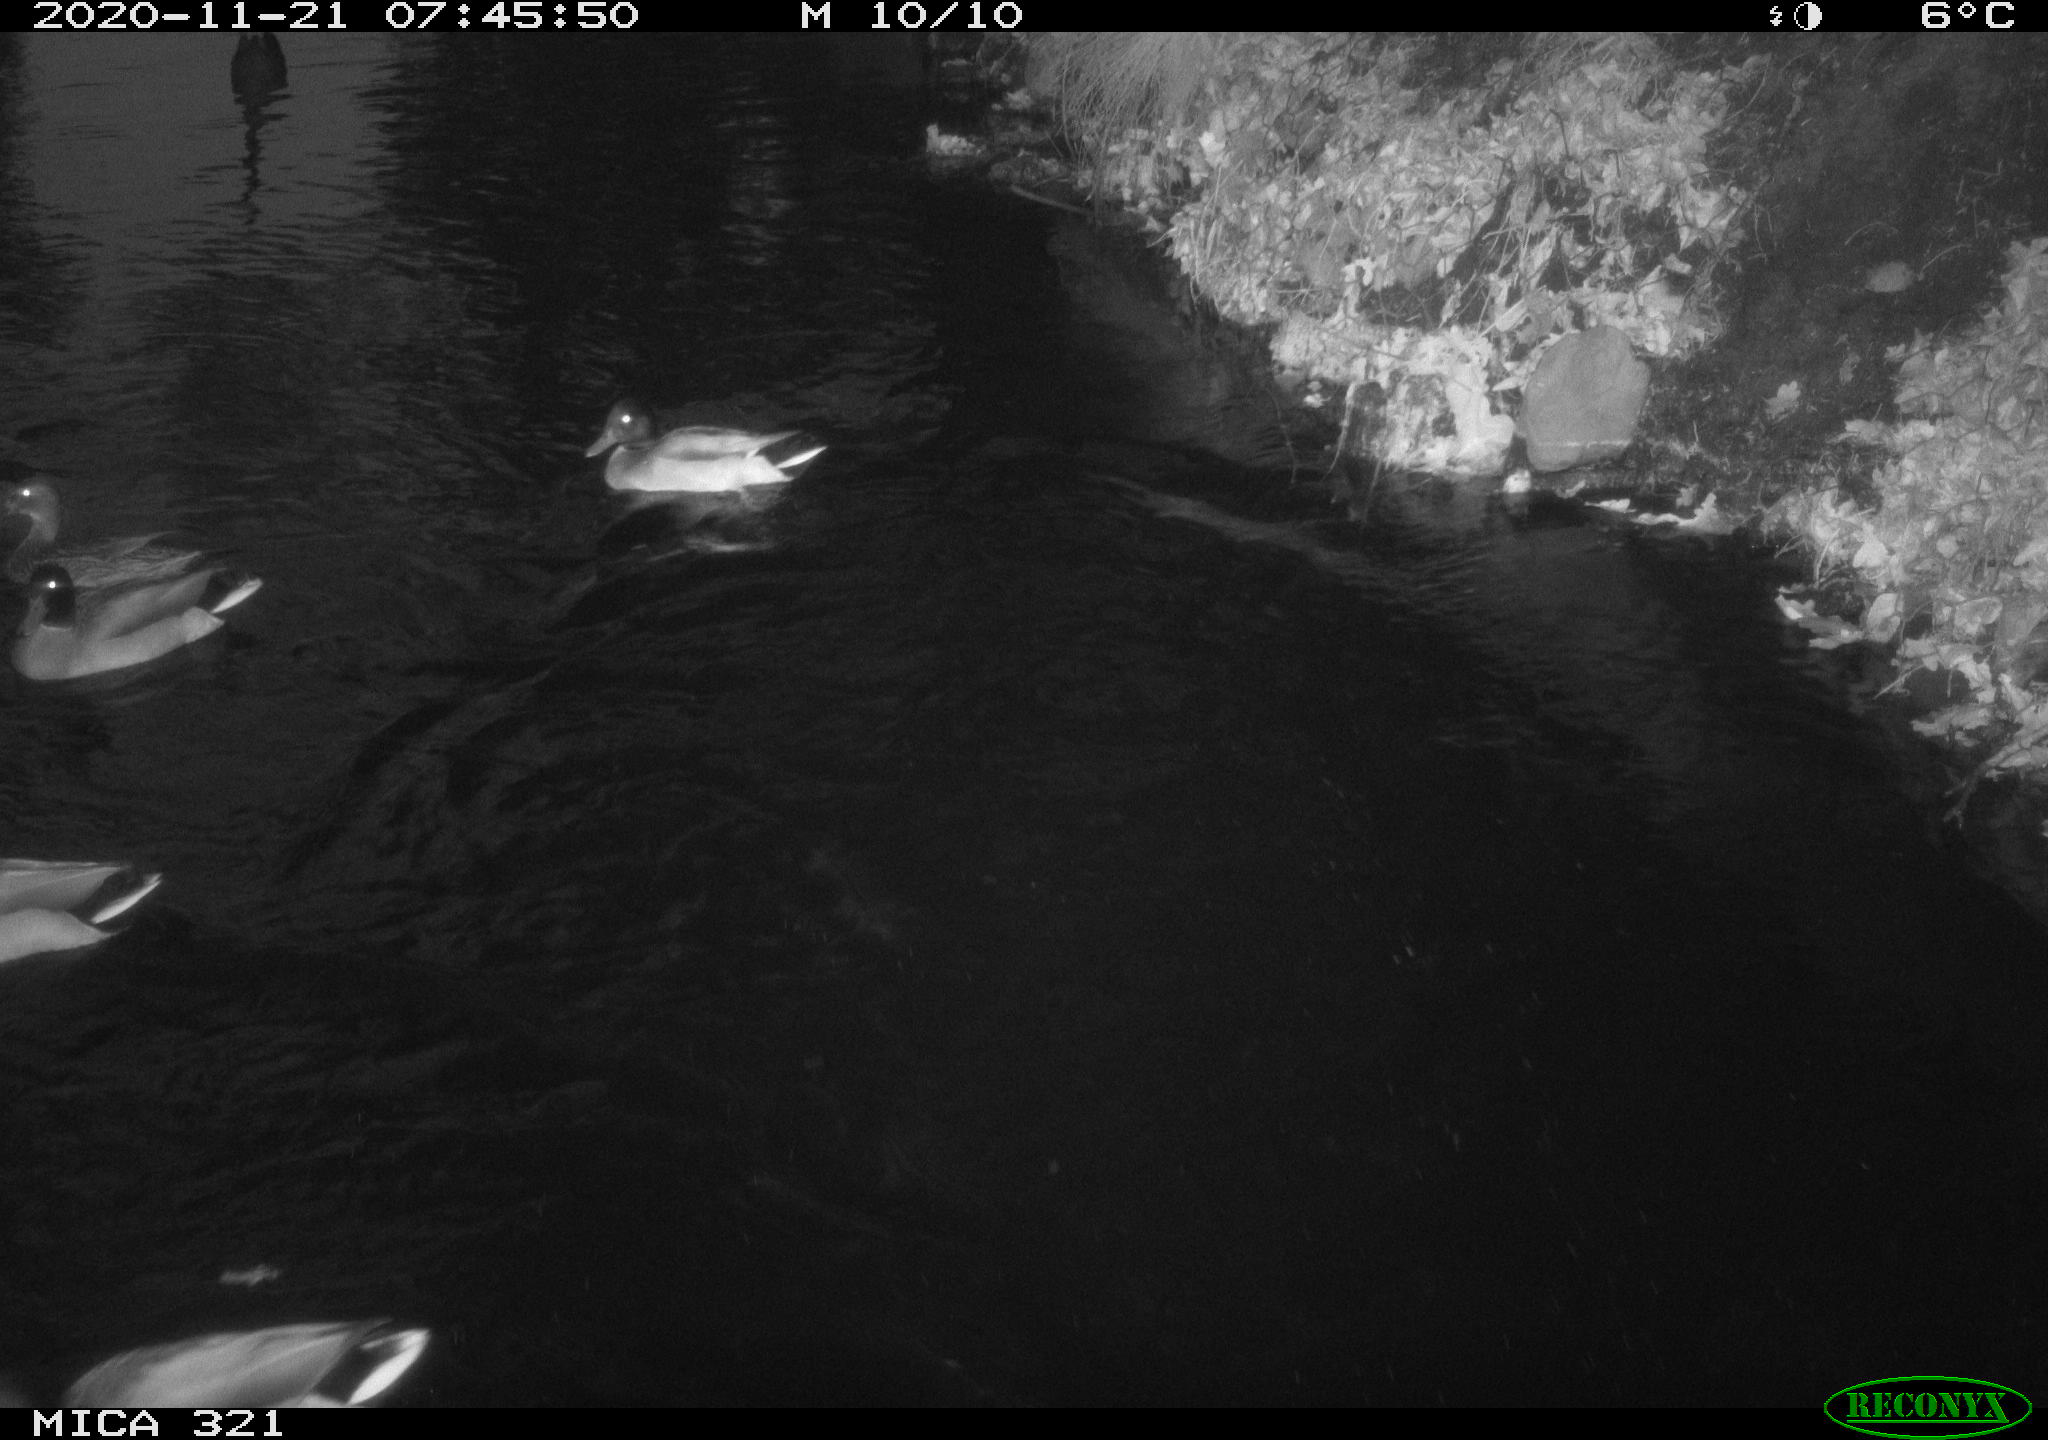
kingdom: Animalia
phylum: Chordata
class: Aves
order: Anseriformes
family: Anatidae
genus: Anas
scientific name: Anas platyrhynchos
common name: Mallard
